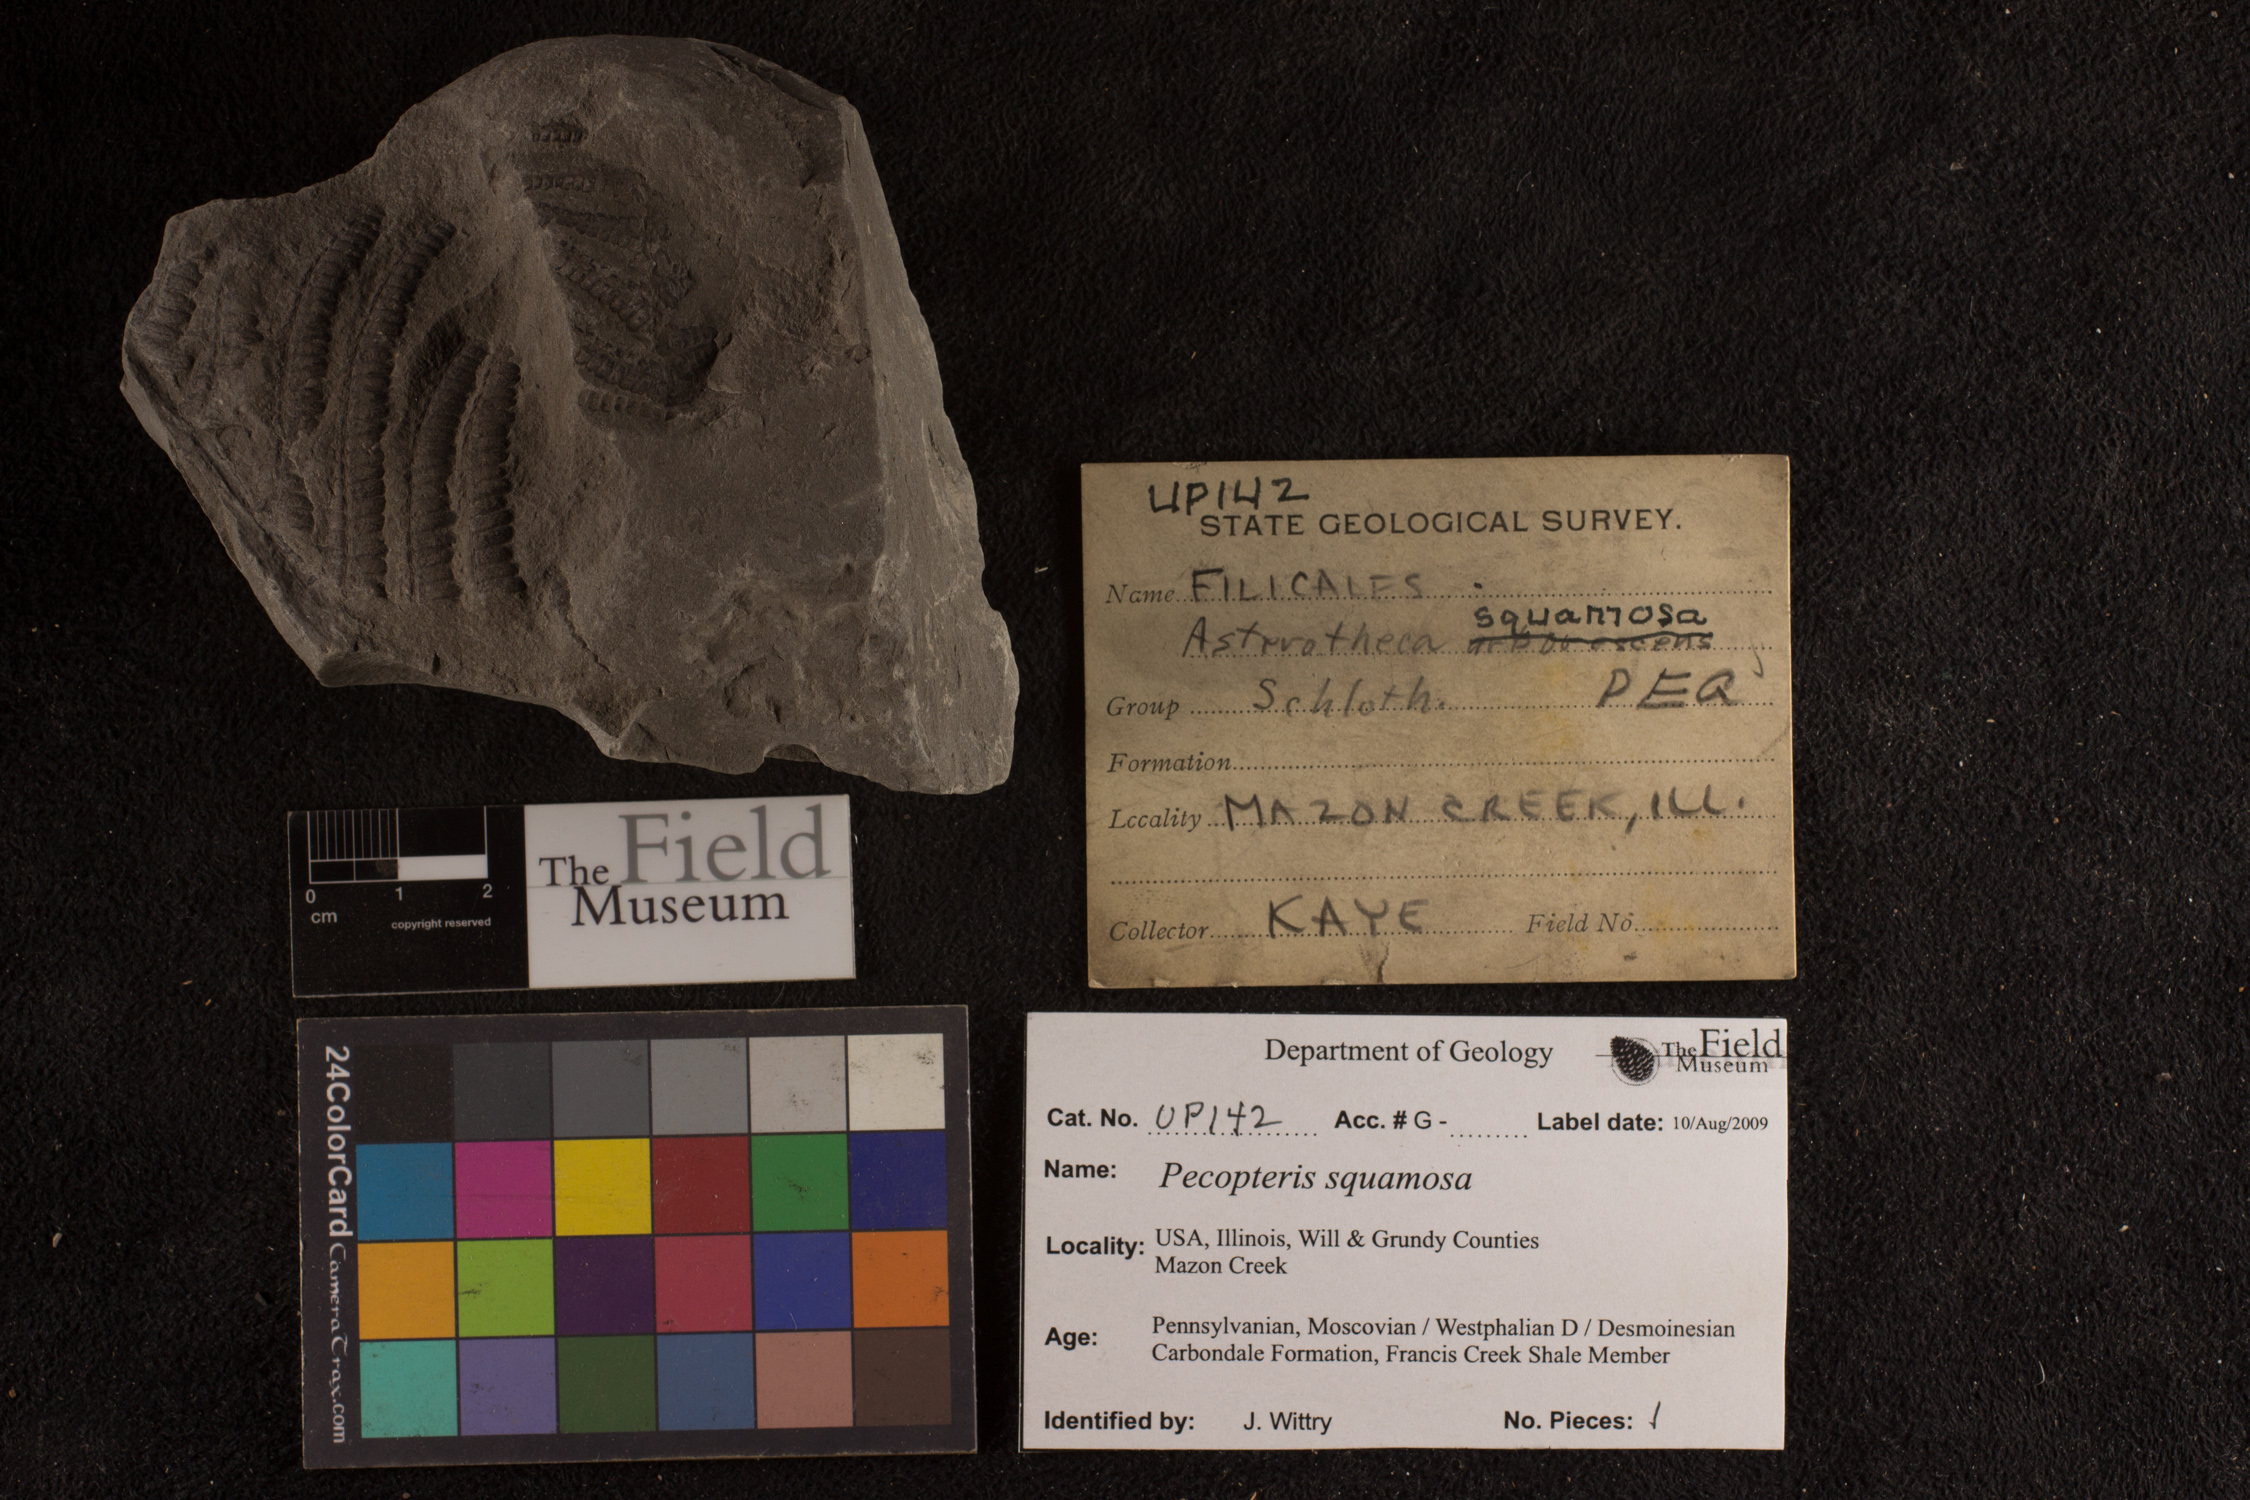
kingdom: Plantae
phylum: Tracheophyta
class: Polypodiopsida
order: Marattiales
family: Asterothecaceae
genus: Pecopteris
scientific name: Pecopteris
